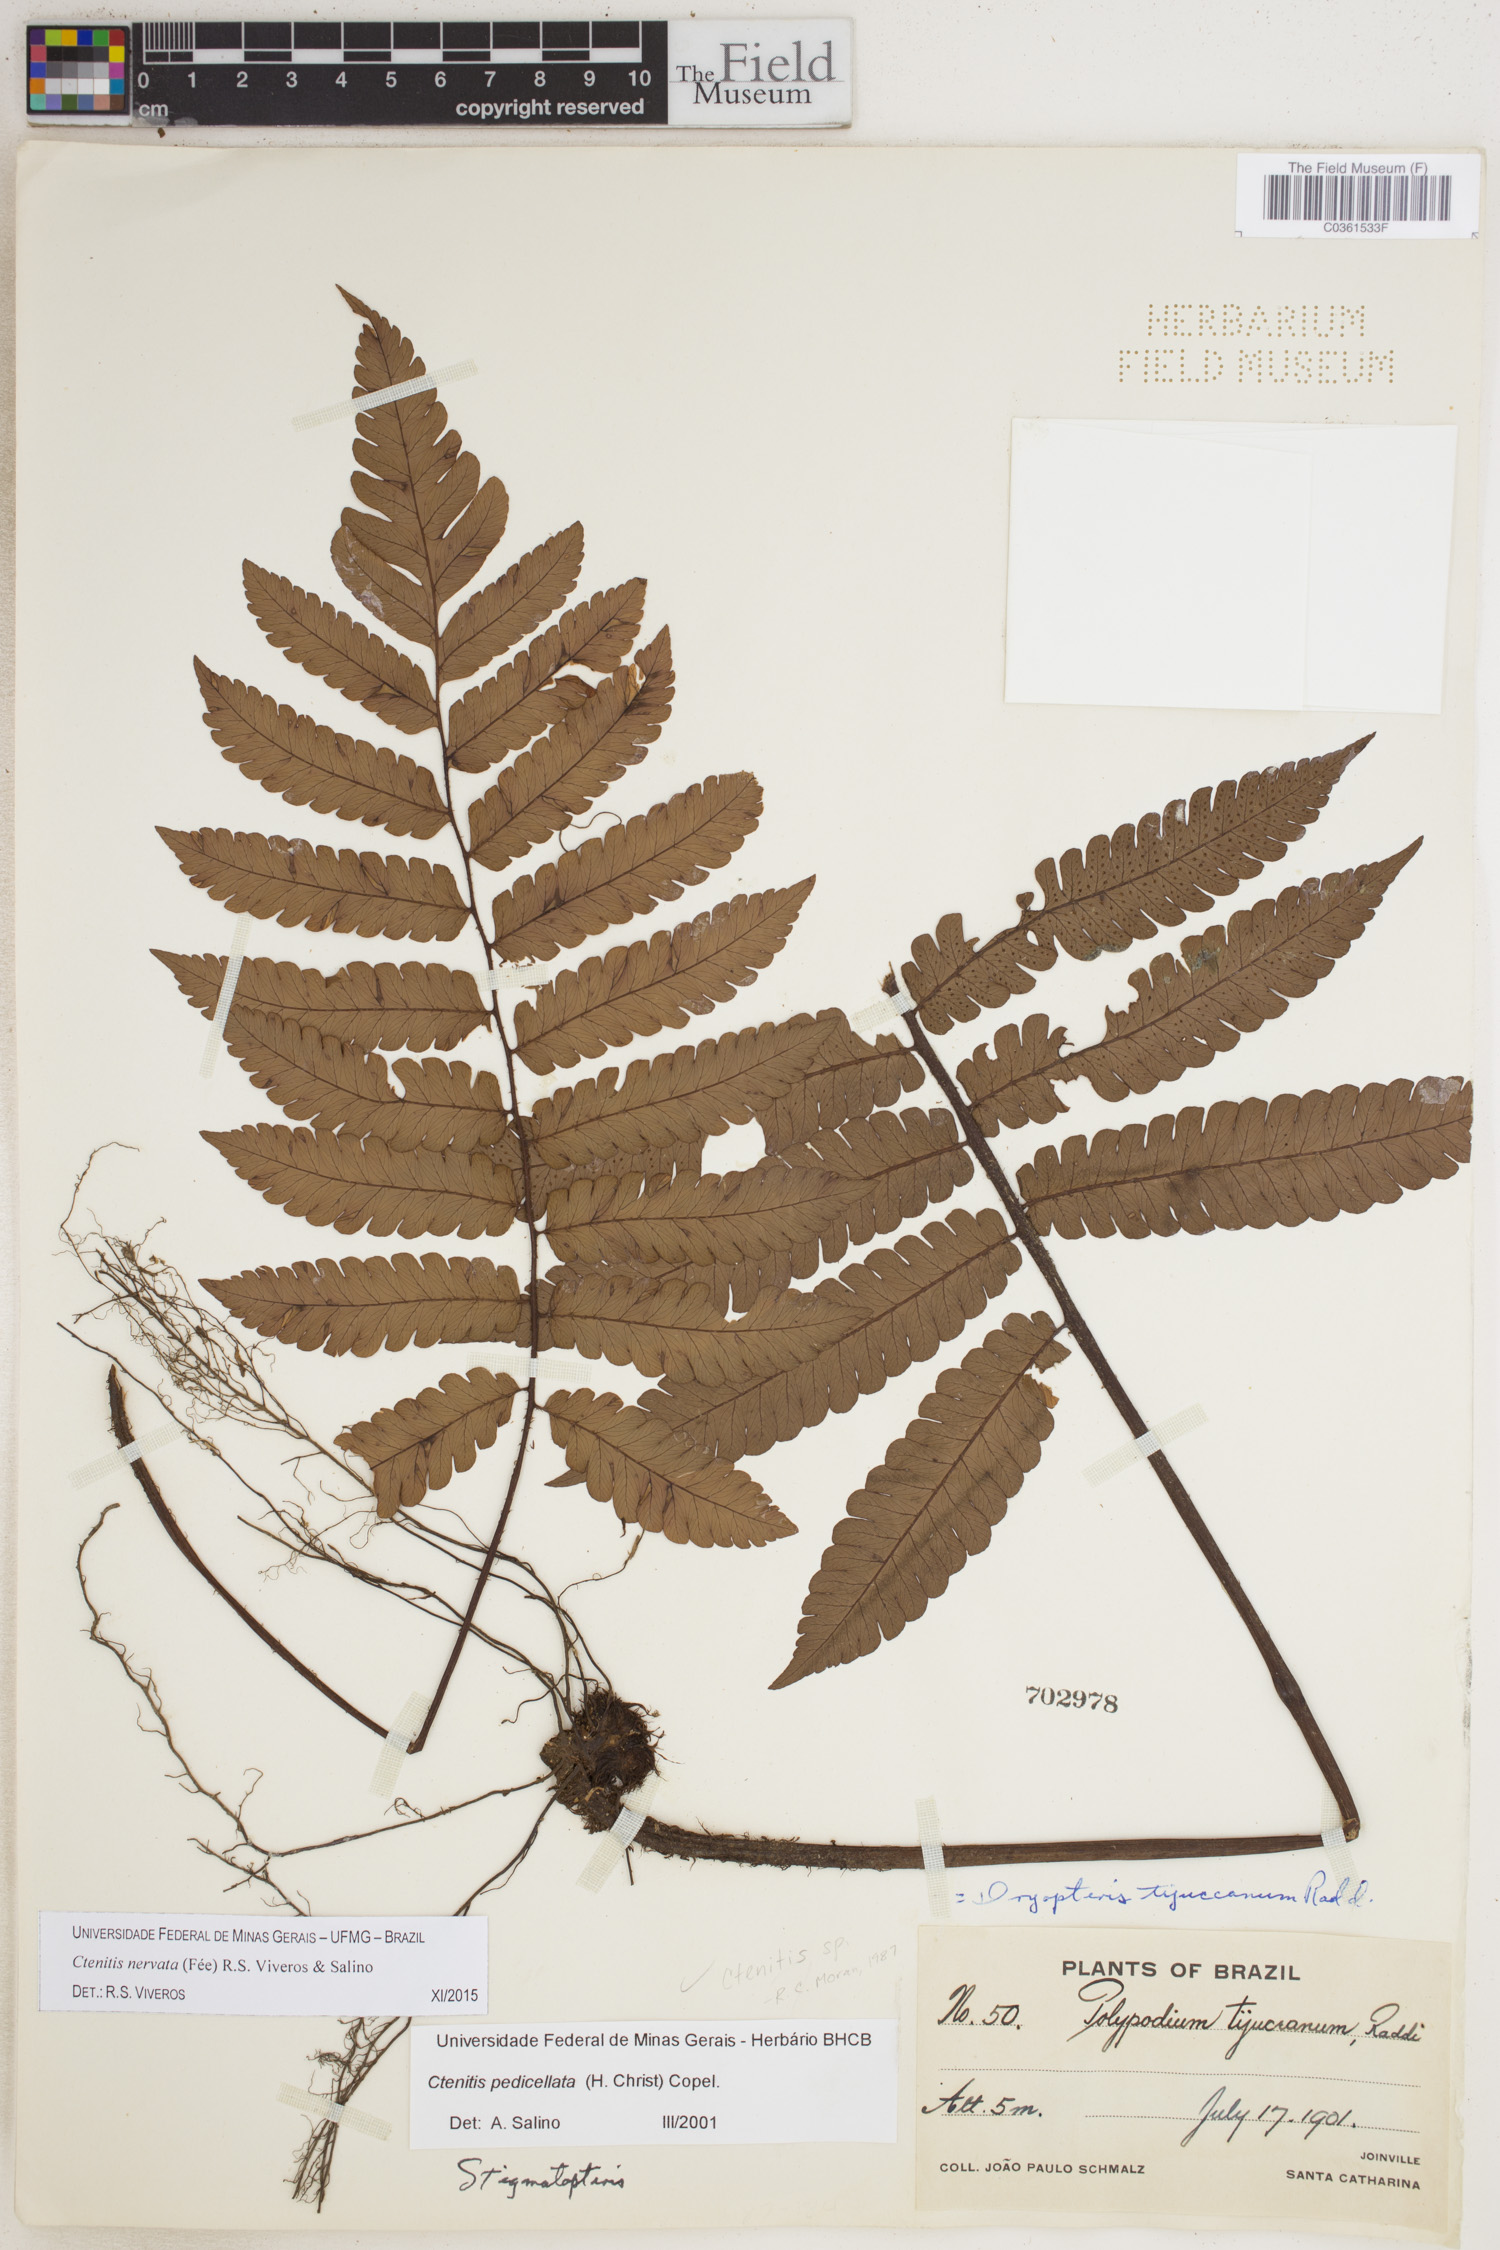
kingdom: Plantae
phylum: Tracheophyta
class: Polypodiopsida
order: Polypodiales
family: Dryopteridaceae
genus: Ctenitis
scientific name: Ctenitis nervata
